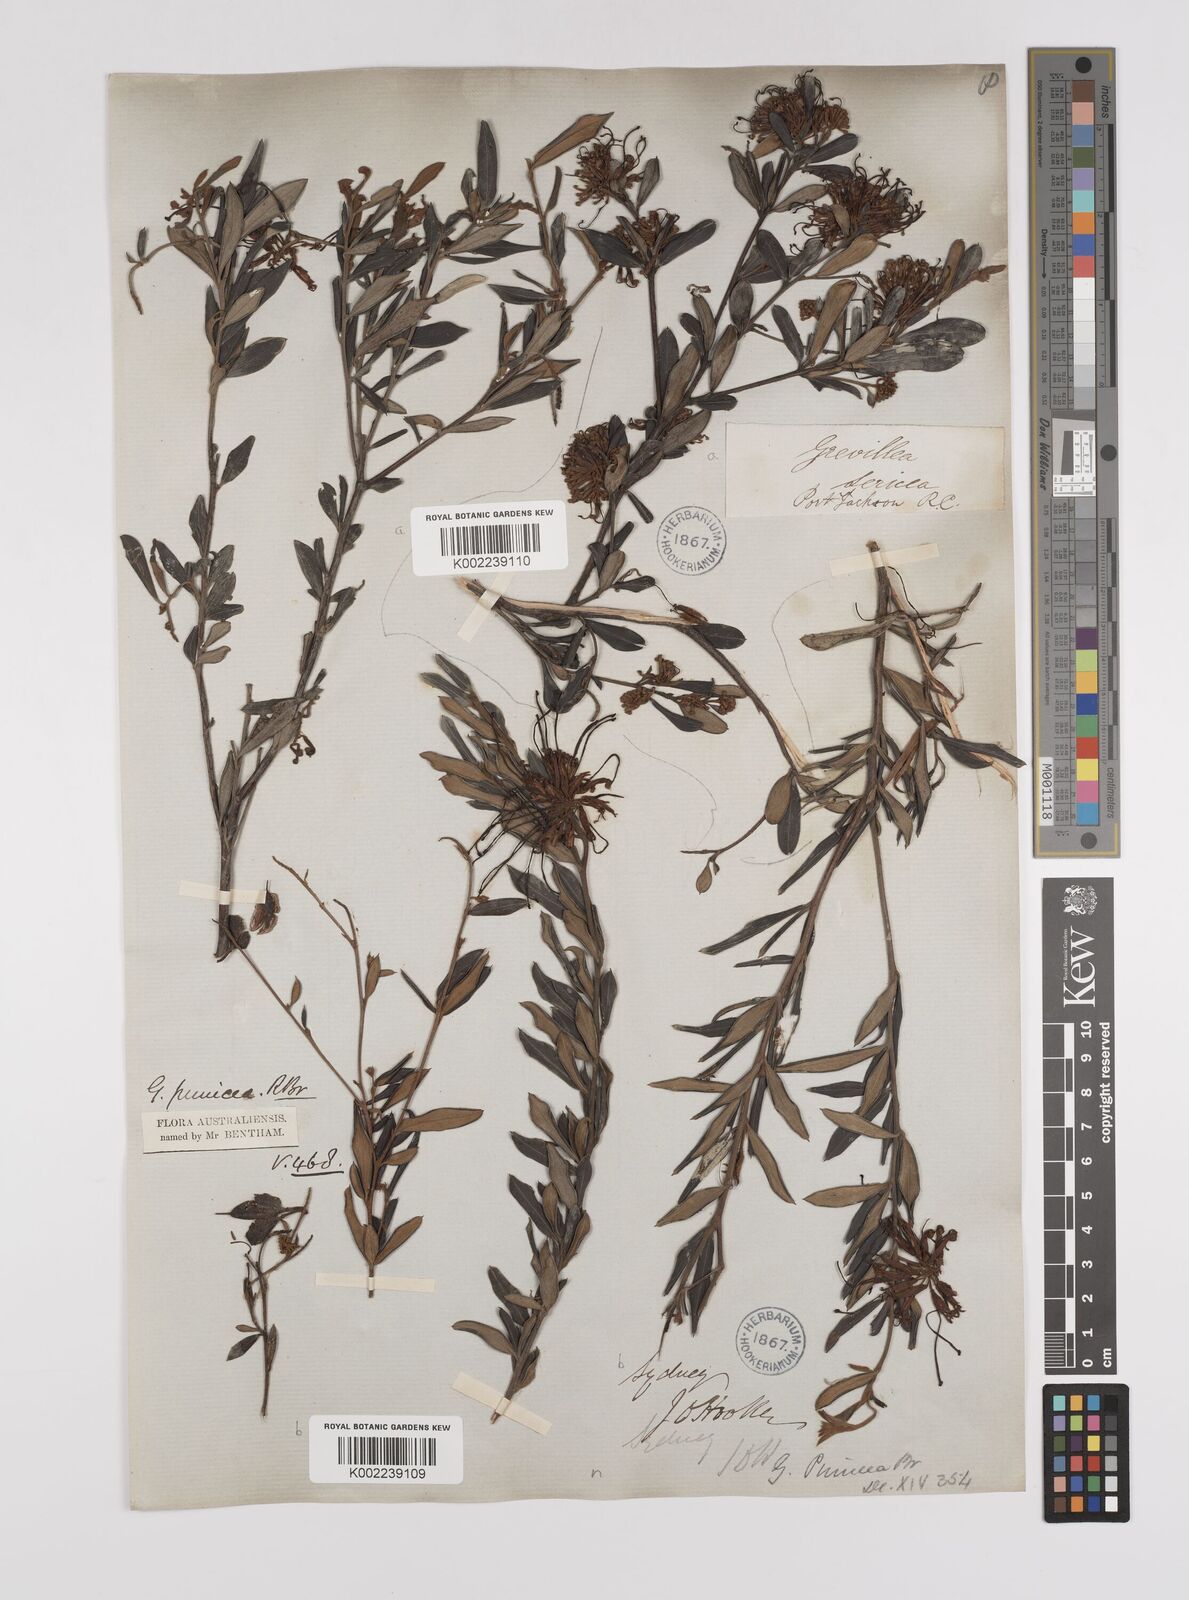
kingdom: Plantae
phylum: Tracheophyta
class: Magnoliopsida
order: Proteales
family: Proteaceae
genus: Grevillea
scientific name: Grevillea speciosa
